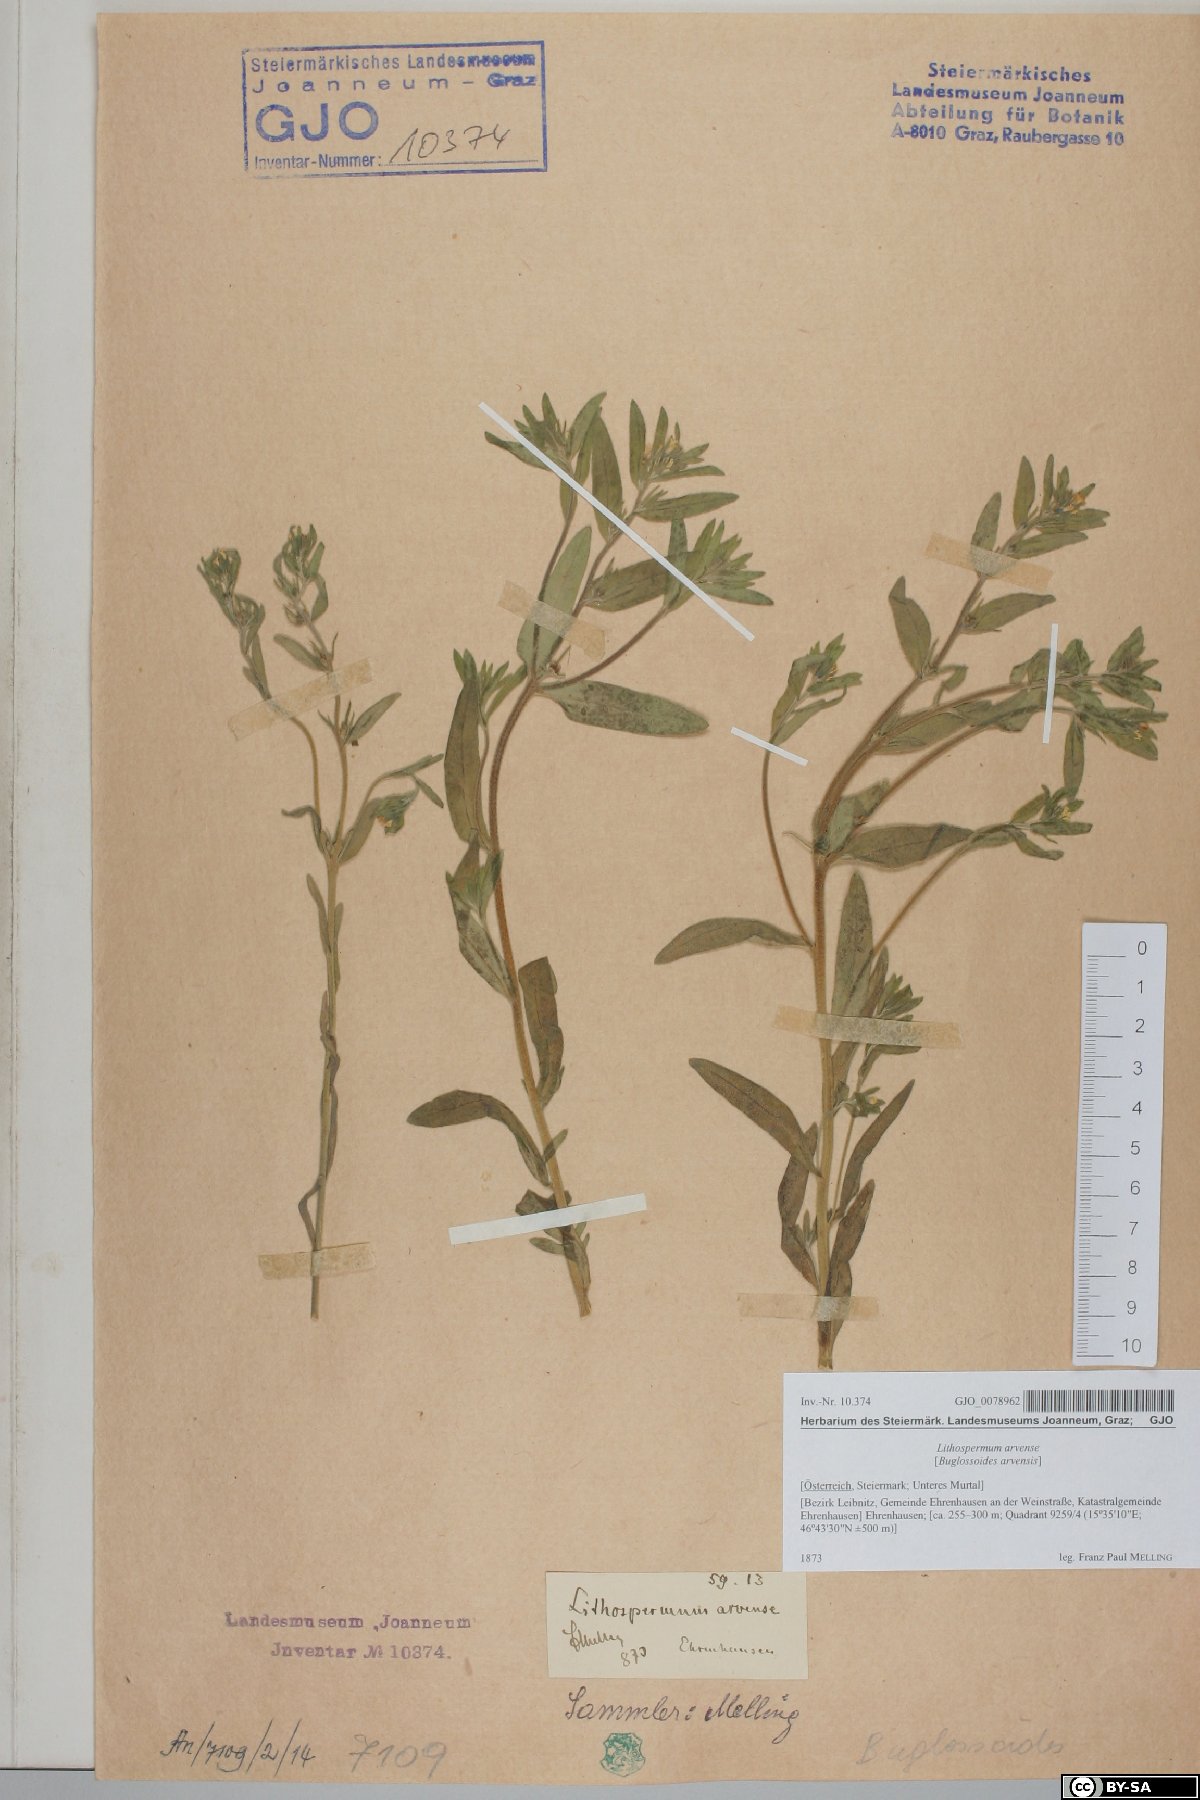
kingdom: Plantae
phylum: Tracheophyta
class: Magnoliopsida
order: Boraginales
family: Boraginaceae
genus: Buglossoides
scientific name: Buglossoides arvensis
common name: Corn gromwell
